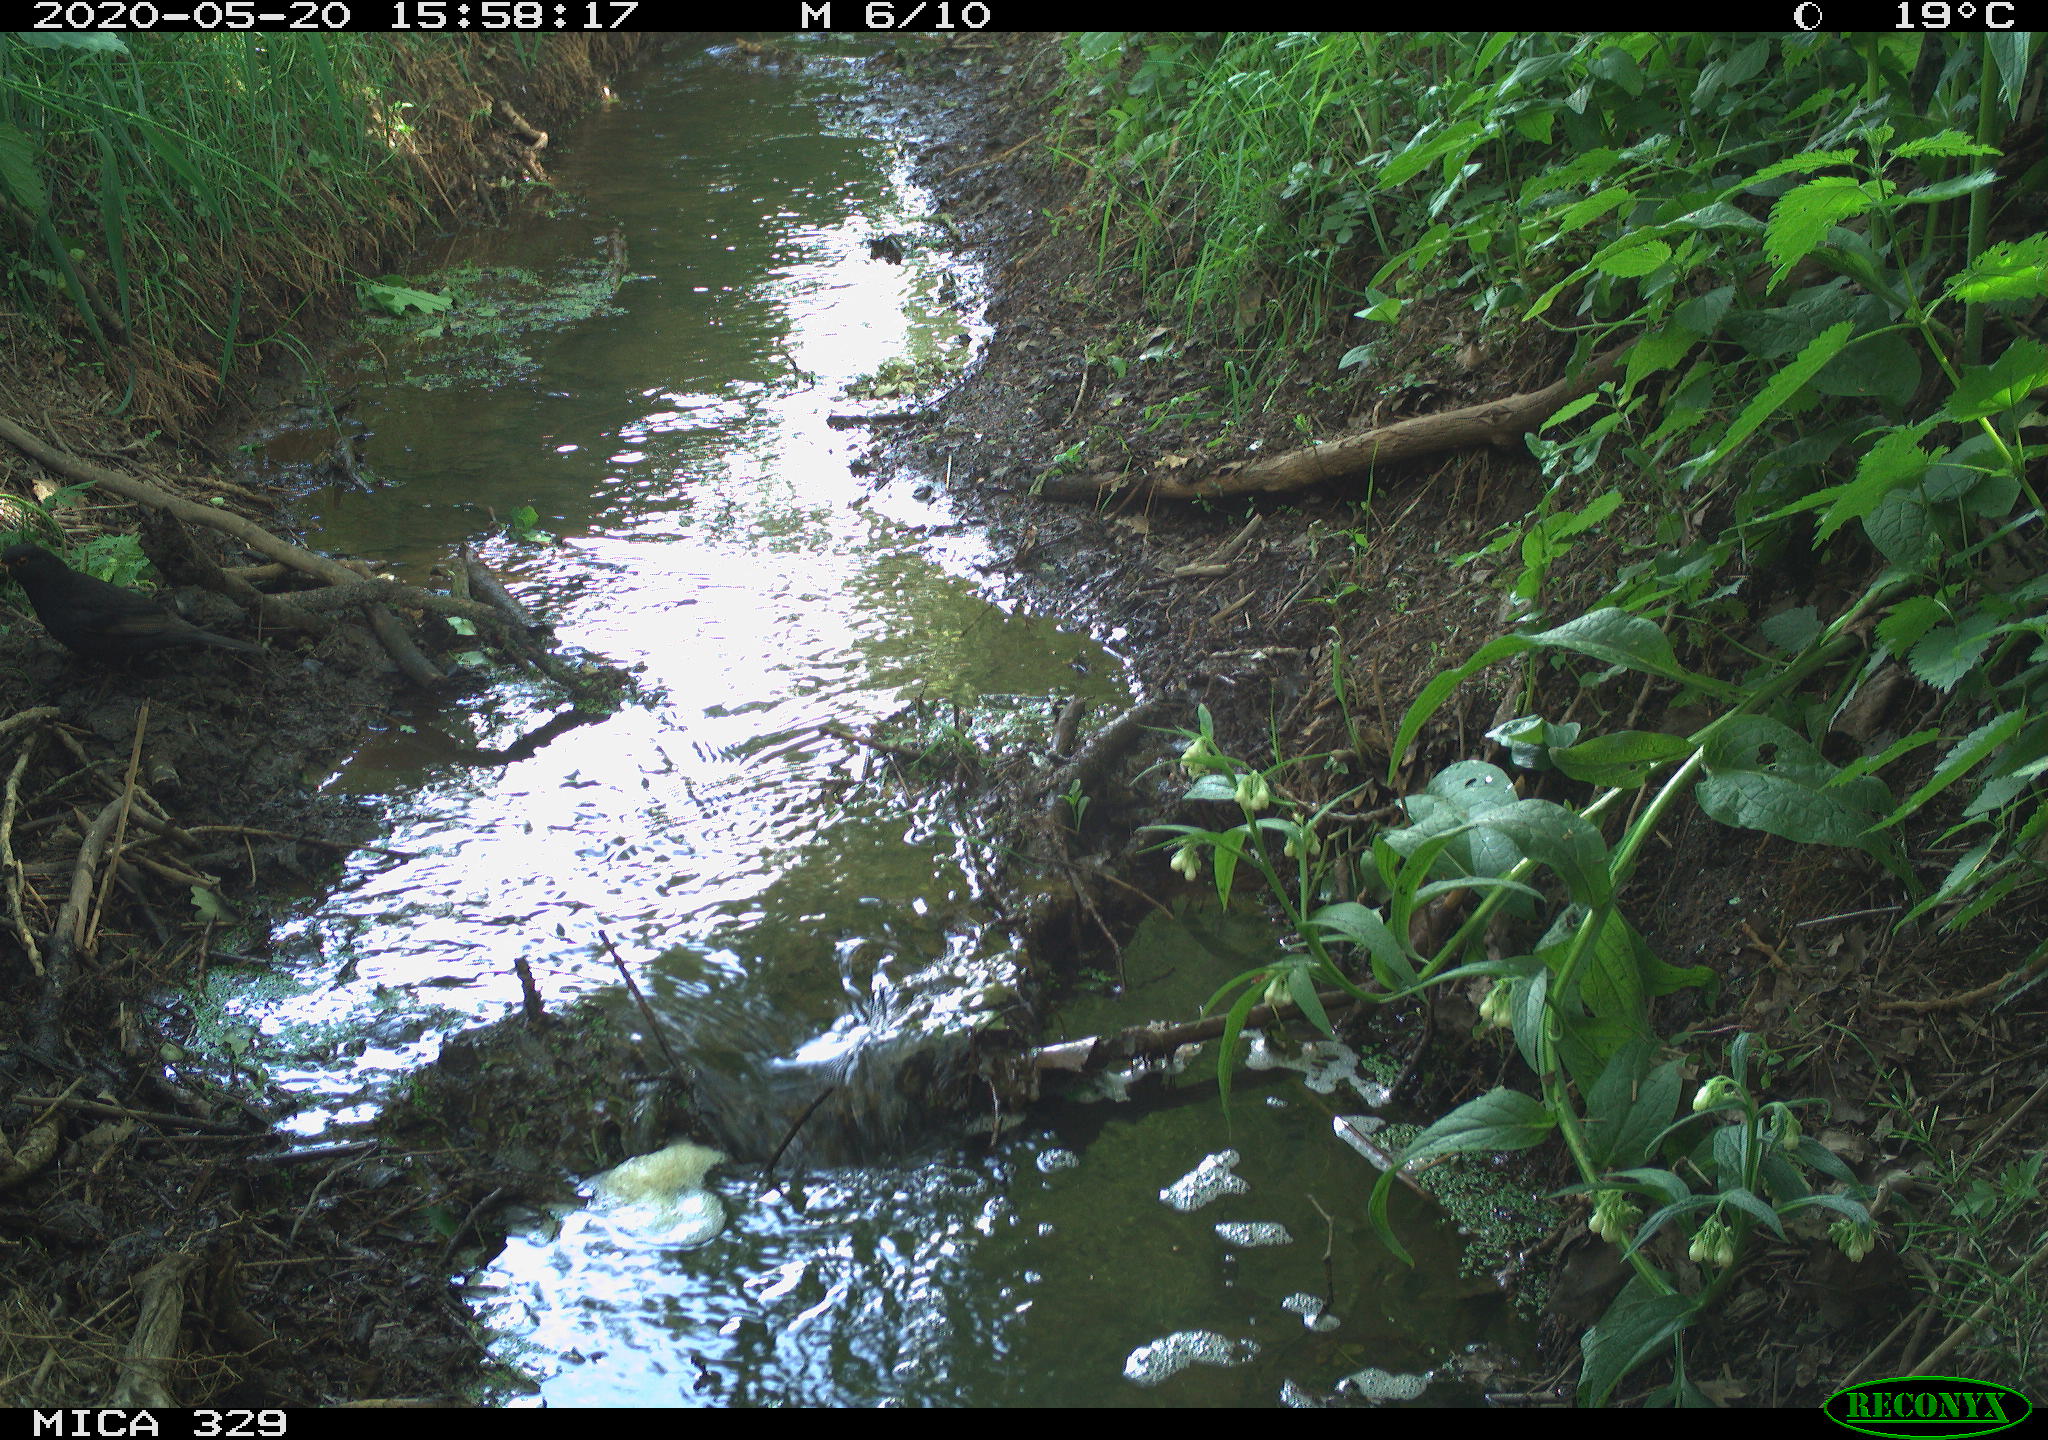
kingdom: Animalia
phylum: Chordata
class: Aves
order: Passeriformes
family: Turdidae
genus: Turdus
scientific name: Turdus merula
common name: Common blackbird
